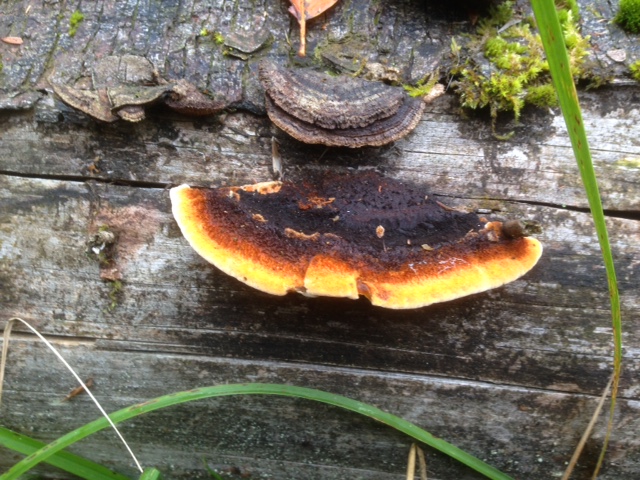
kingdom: Fungi
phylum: Basidiomycota
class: Agaricomycetes
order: Gloeophyllales
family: Gloeophyllaceae
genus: Gloeophyllum
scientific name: Gloeophyllum sepiarium
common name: fyrre-korkhat
